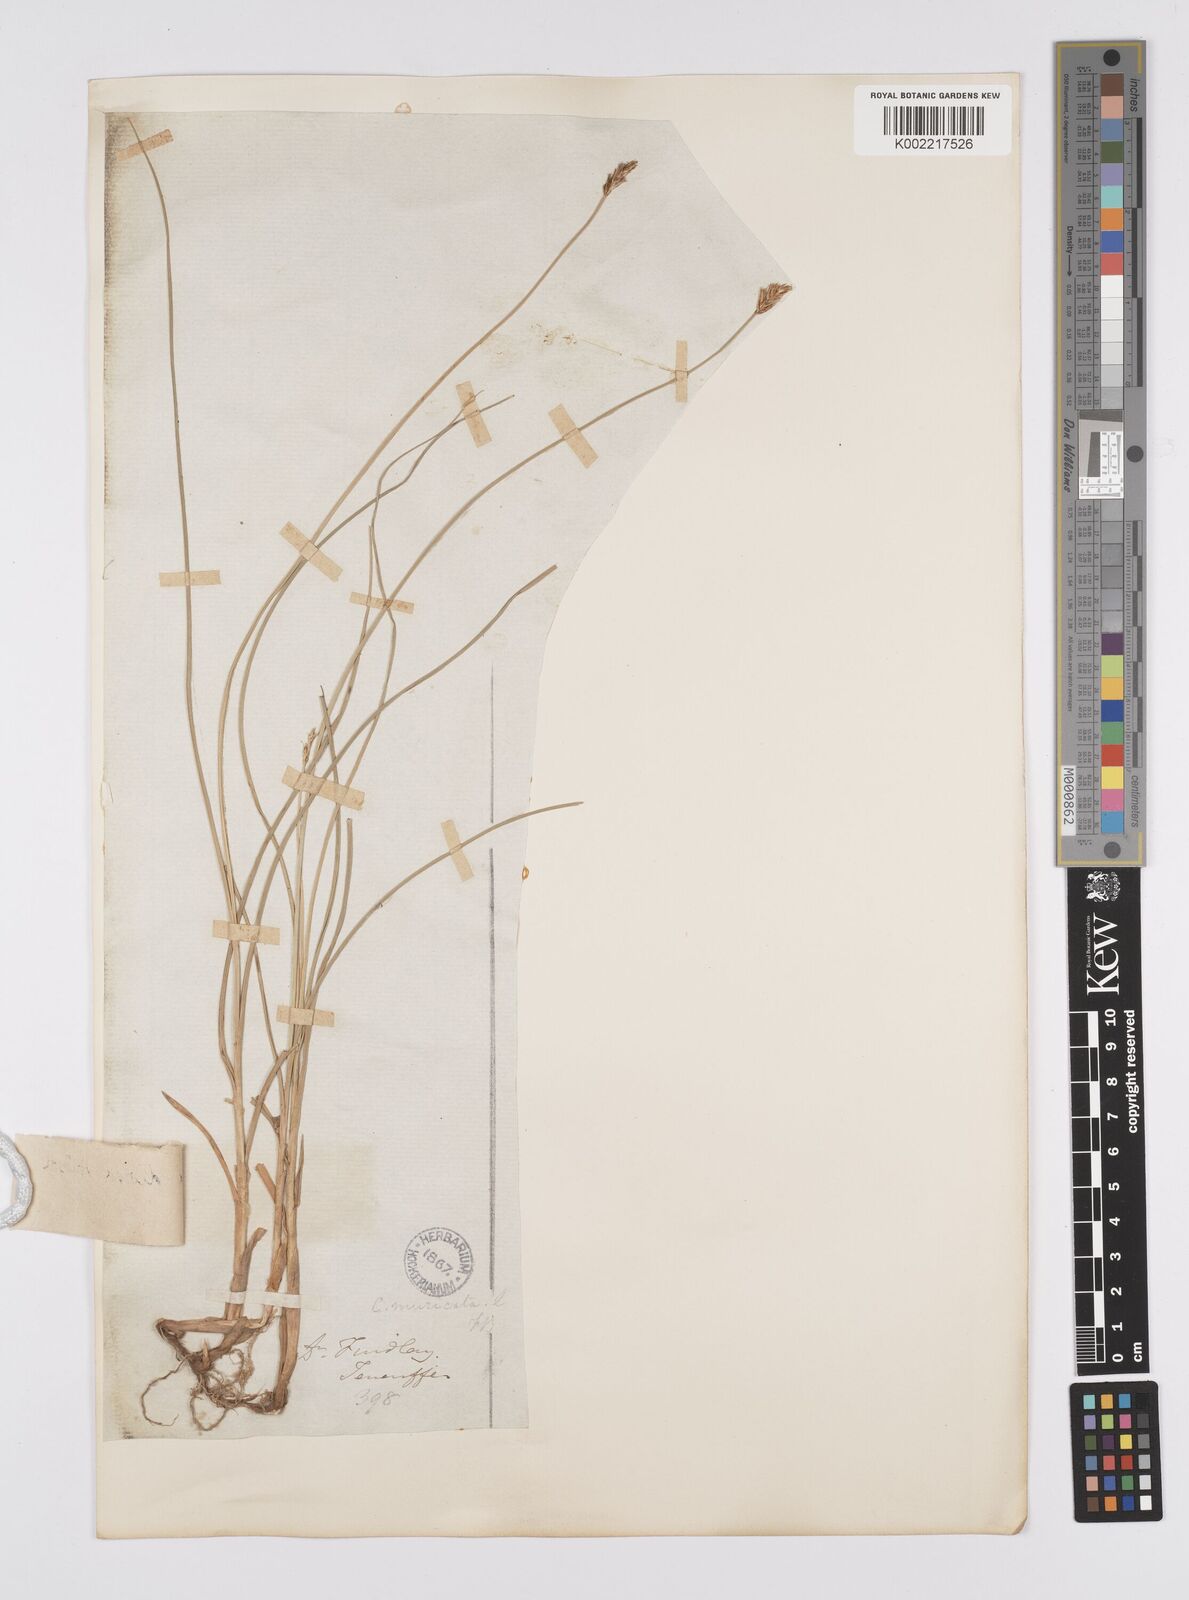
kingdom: Plantae
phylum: Tracheophyta
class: Liliopsida
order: Poales
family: Cyperaceae
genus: Carex
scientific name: Carex divisa
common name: Divided sedge
